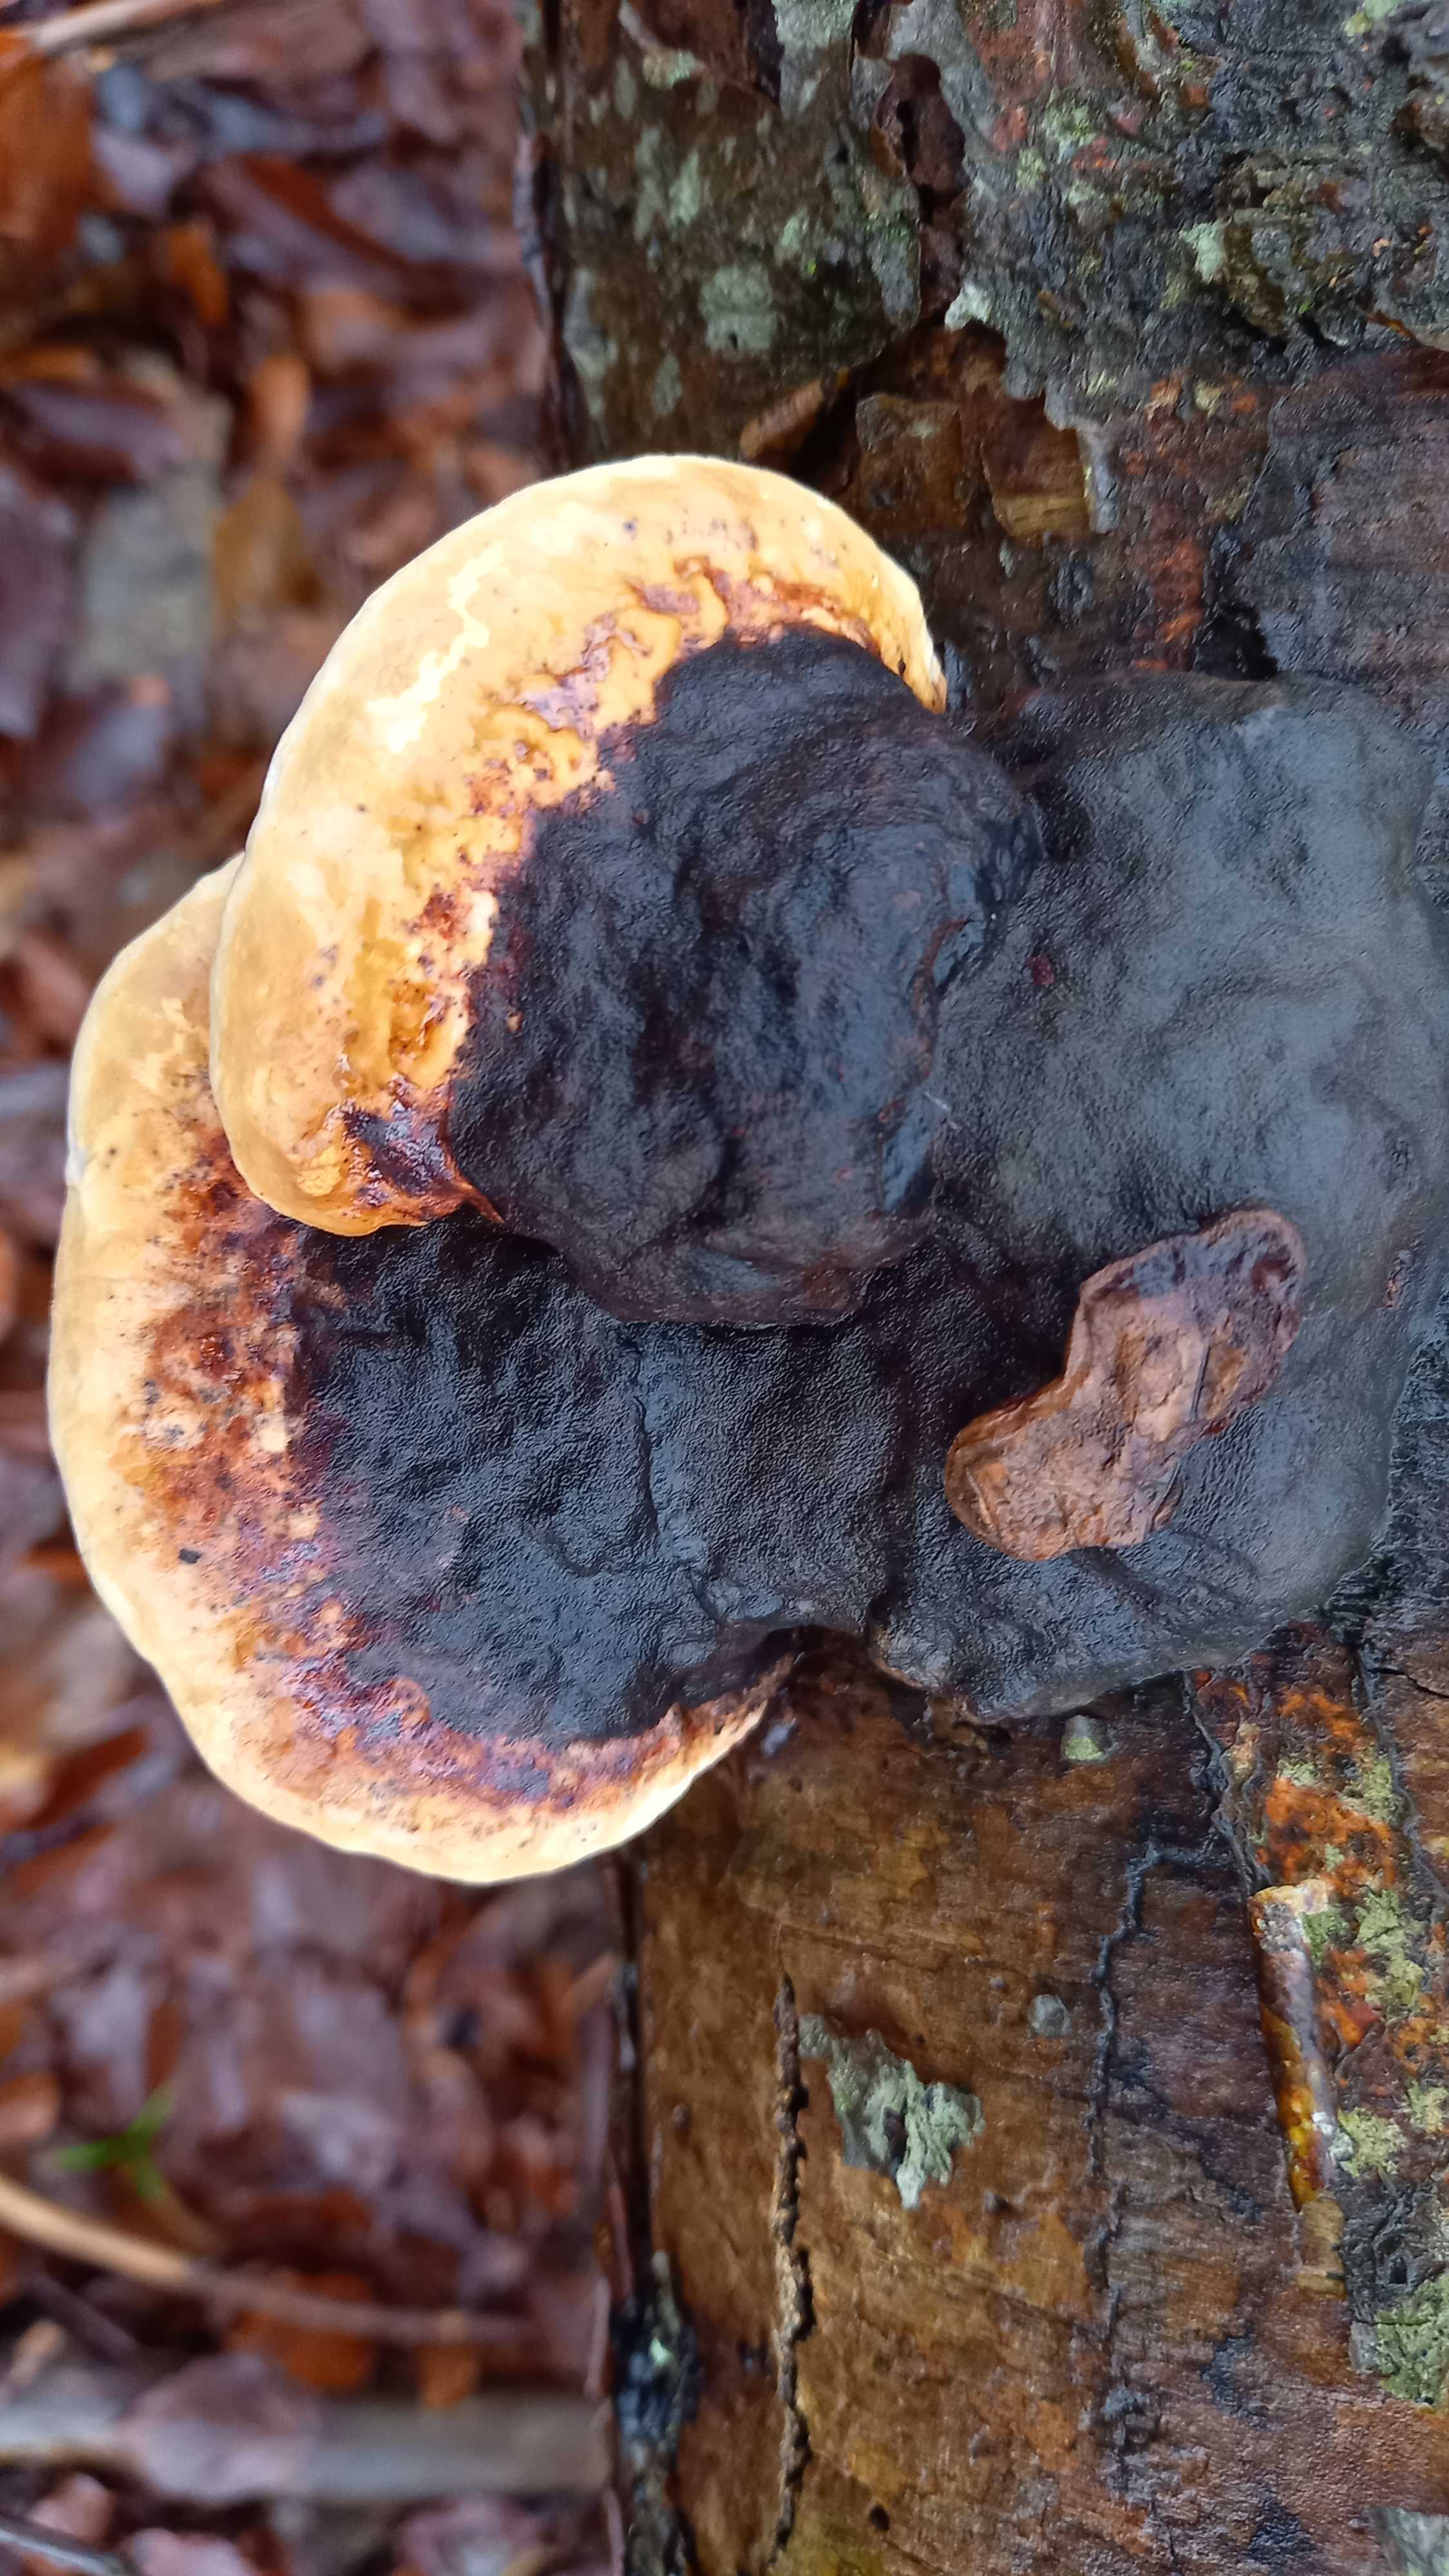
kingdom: Fungi
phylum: Basidiomycota
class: Agaricomycetes
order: Polyporales
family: Fomitopsidaceae
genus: Fomitopsis
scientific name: Fomitopsis pinicola
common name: randbæltet hovporesvamp
